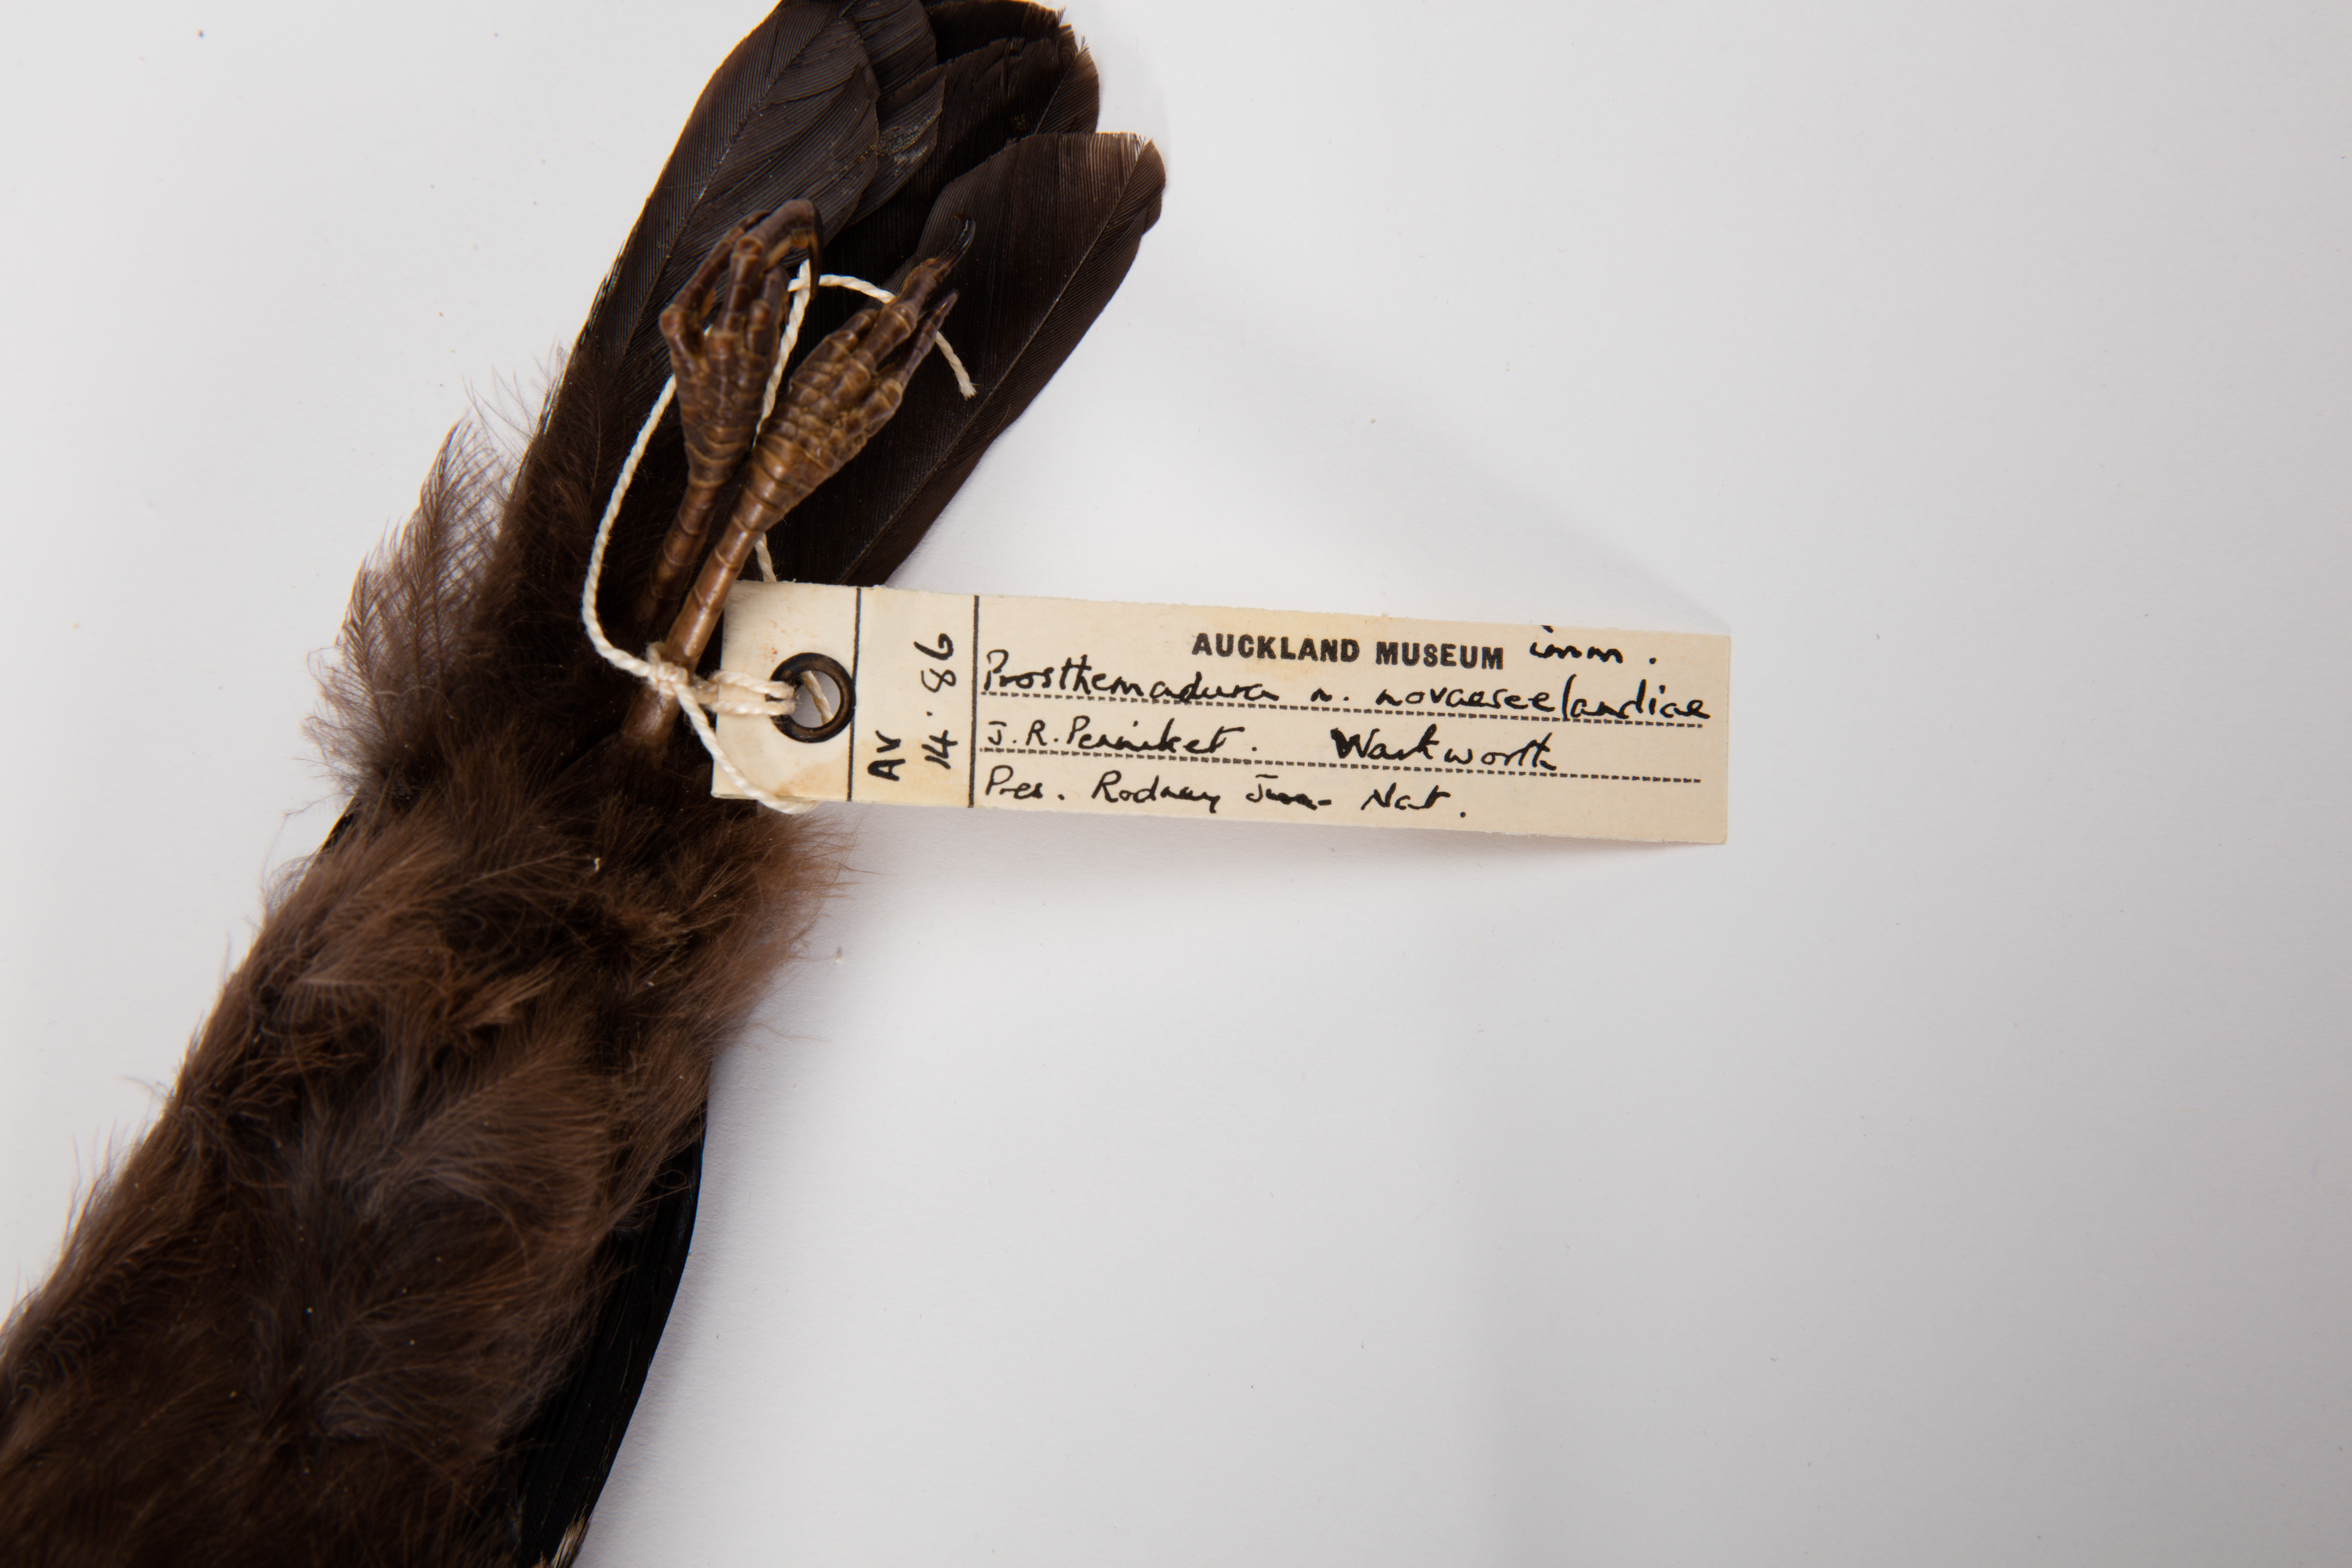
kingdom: Animalia
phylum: Chordata
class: Aves
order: Passeriformes
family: Meliphagidae
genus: Prosthemadera
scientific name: Prosthemadera novaeseelandiae
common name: Tui
